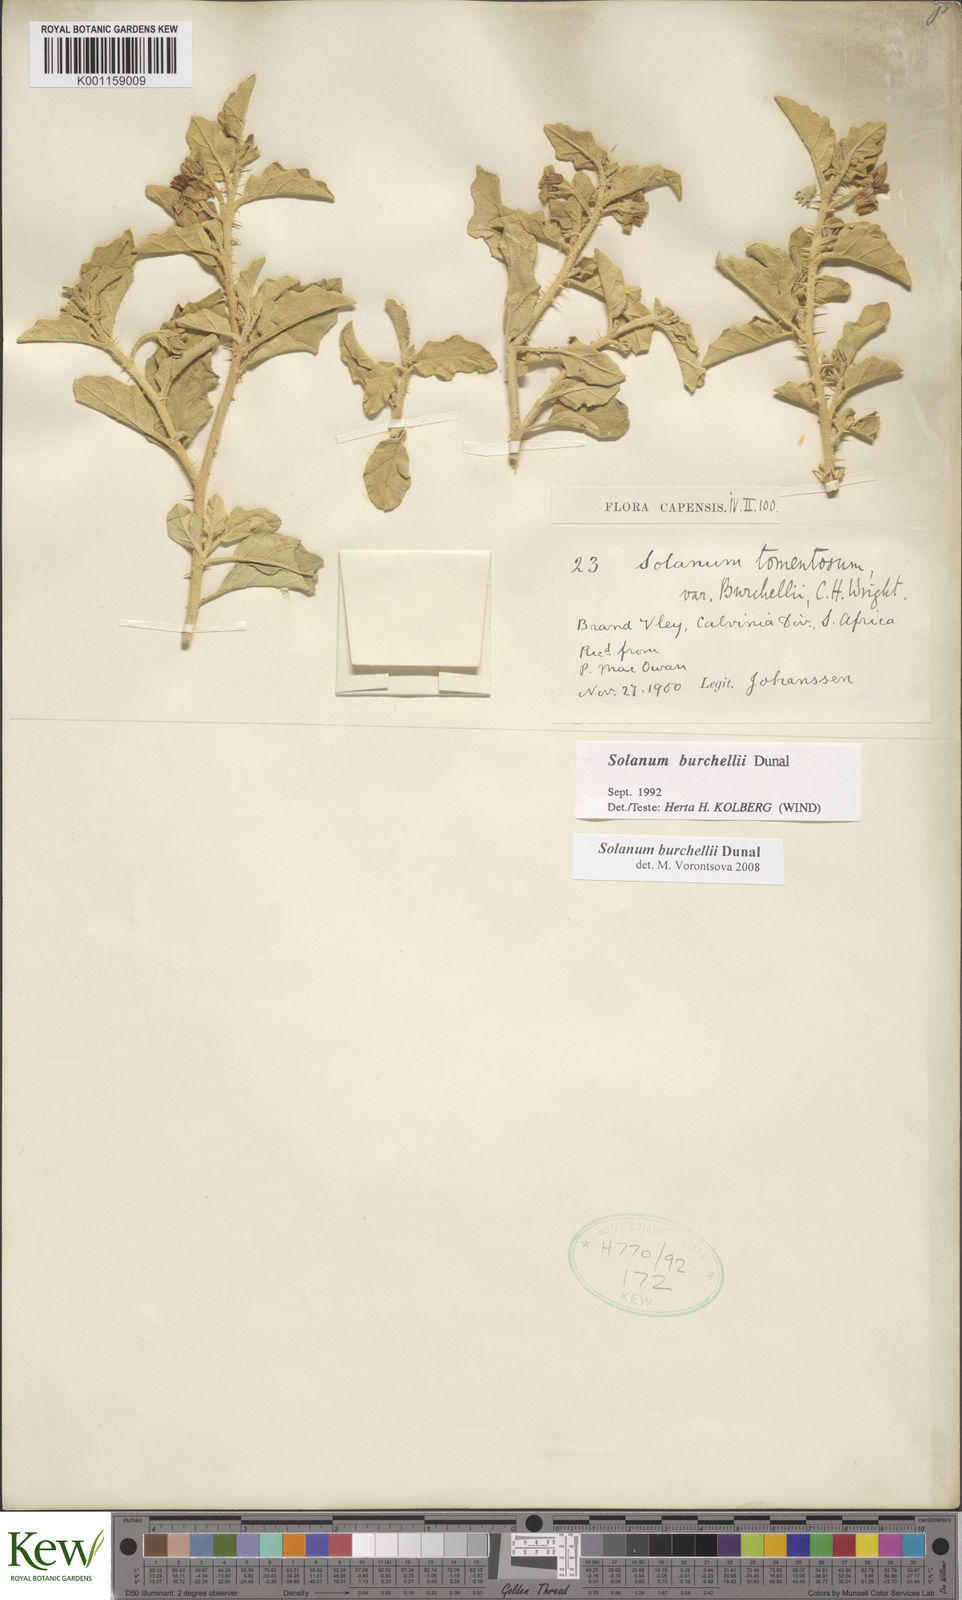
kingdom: Plantae
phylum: Tracheophyta
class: Magnoliopsida
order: Solanales
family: Solanaceae
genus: Solanum
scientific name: Solanum burchellii
